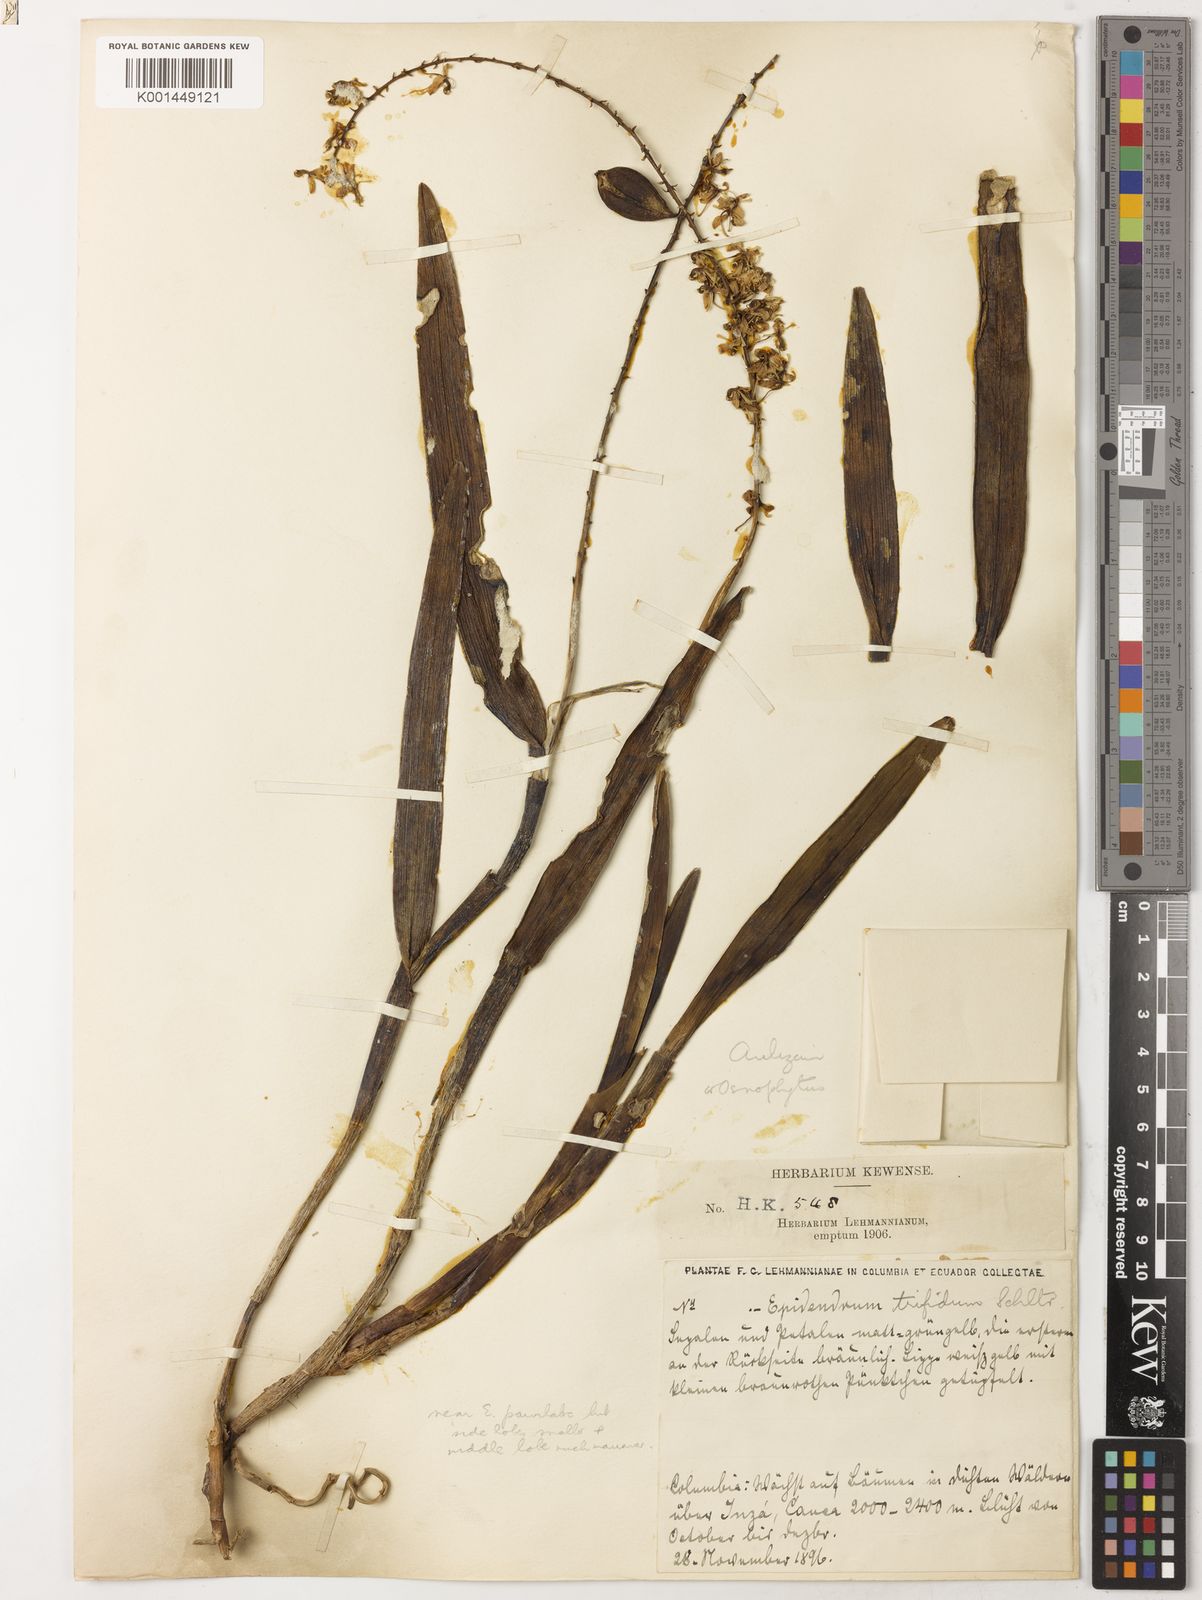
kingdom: Plantae
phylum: Tracheophyta
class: Liliopsida
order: Asparagales
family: Orchidaceae
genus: Epidendrum
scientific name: Epidendrum trifidum
